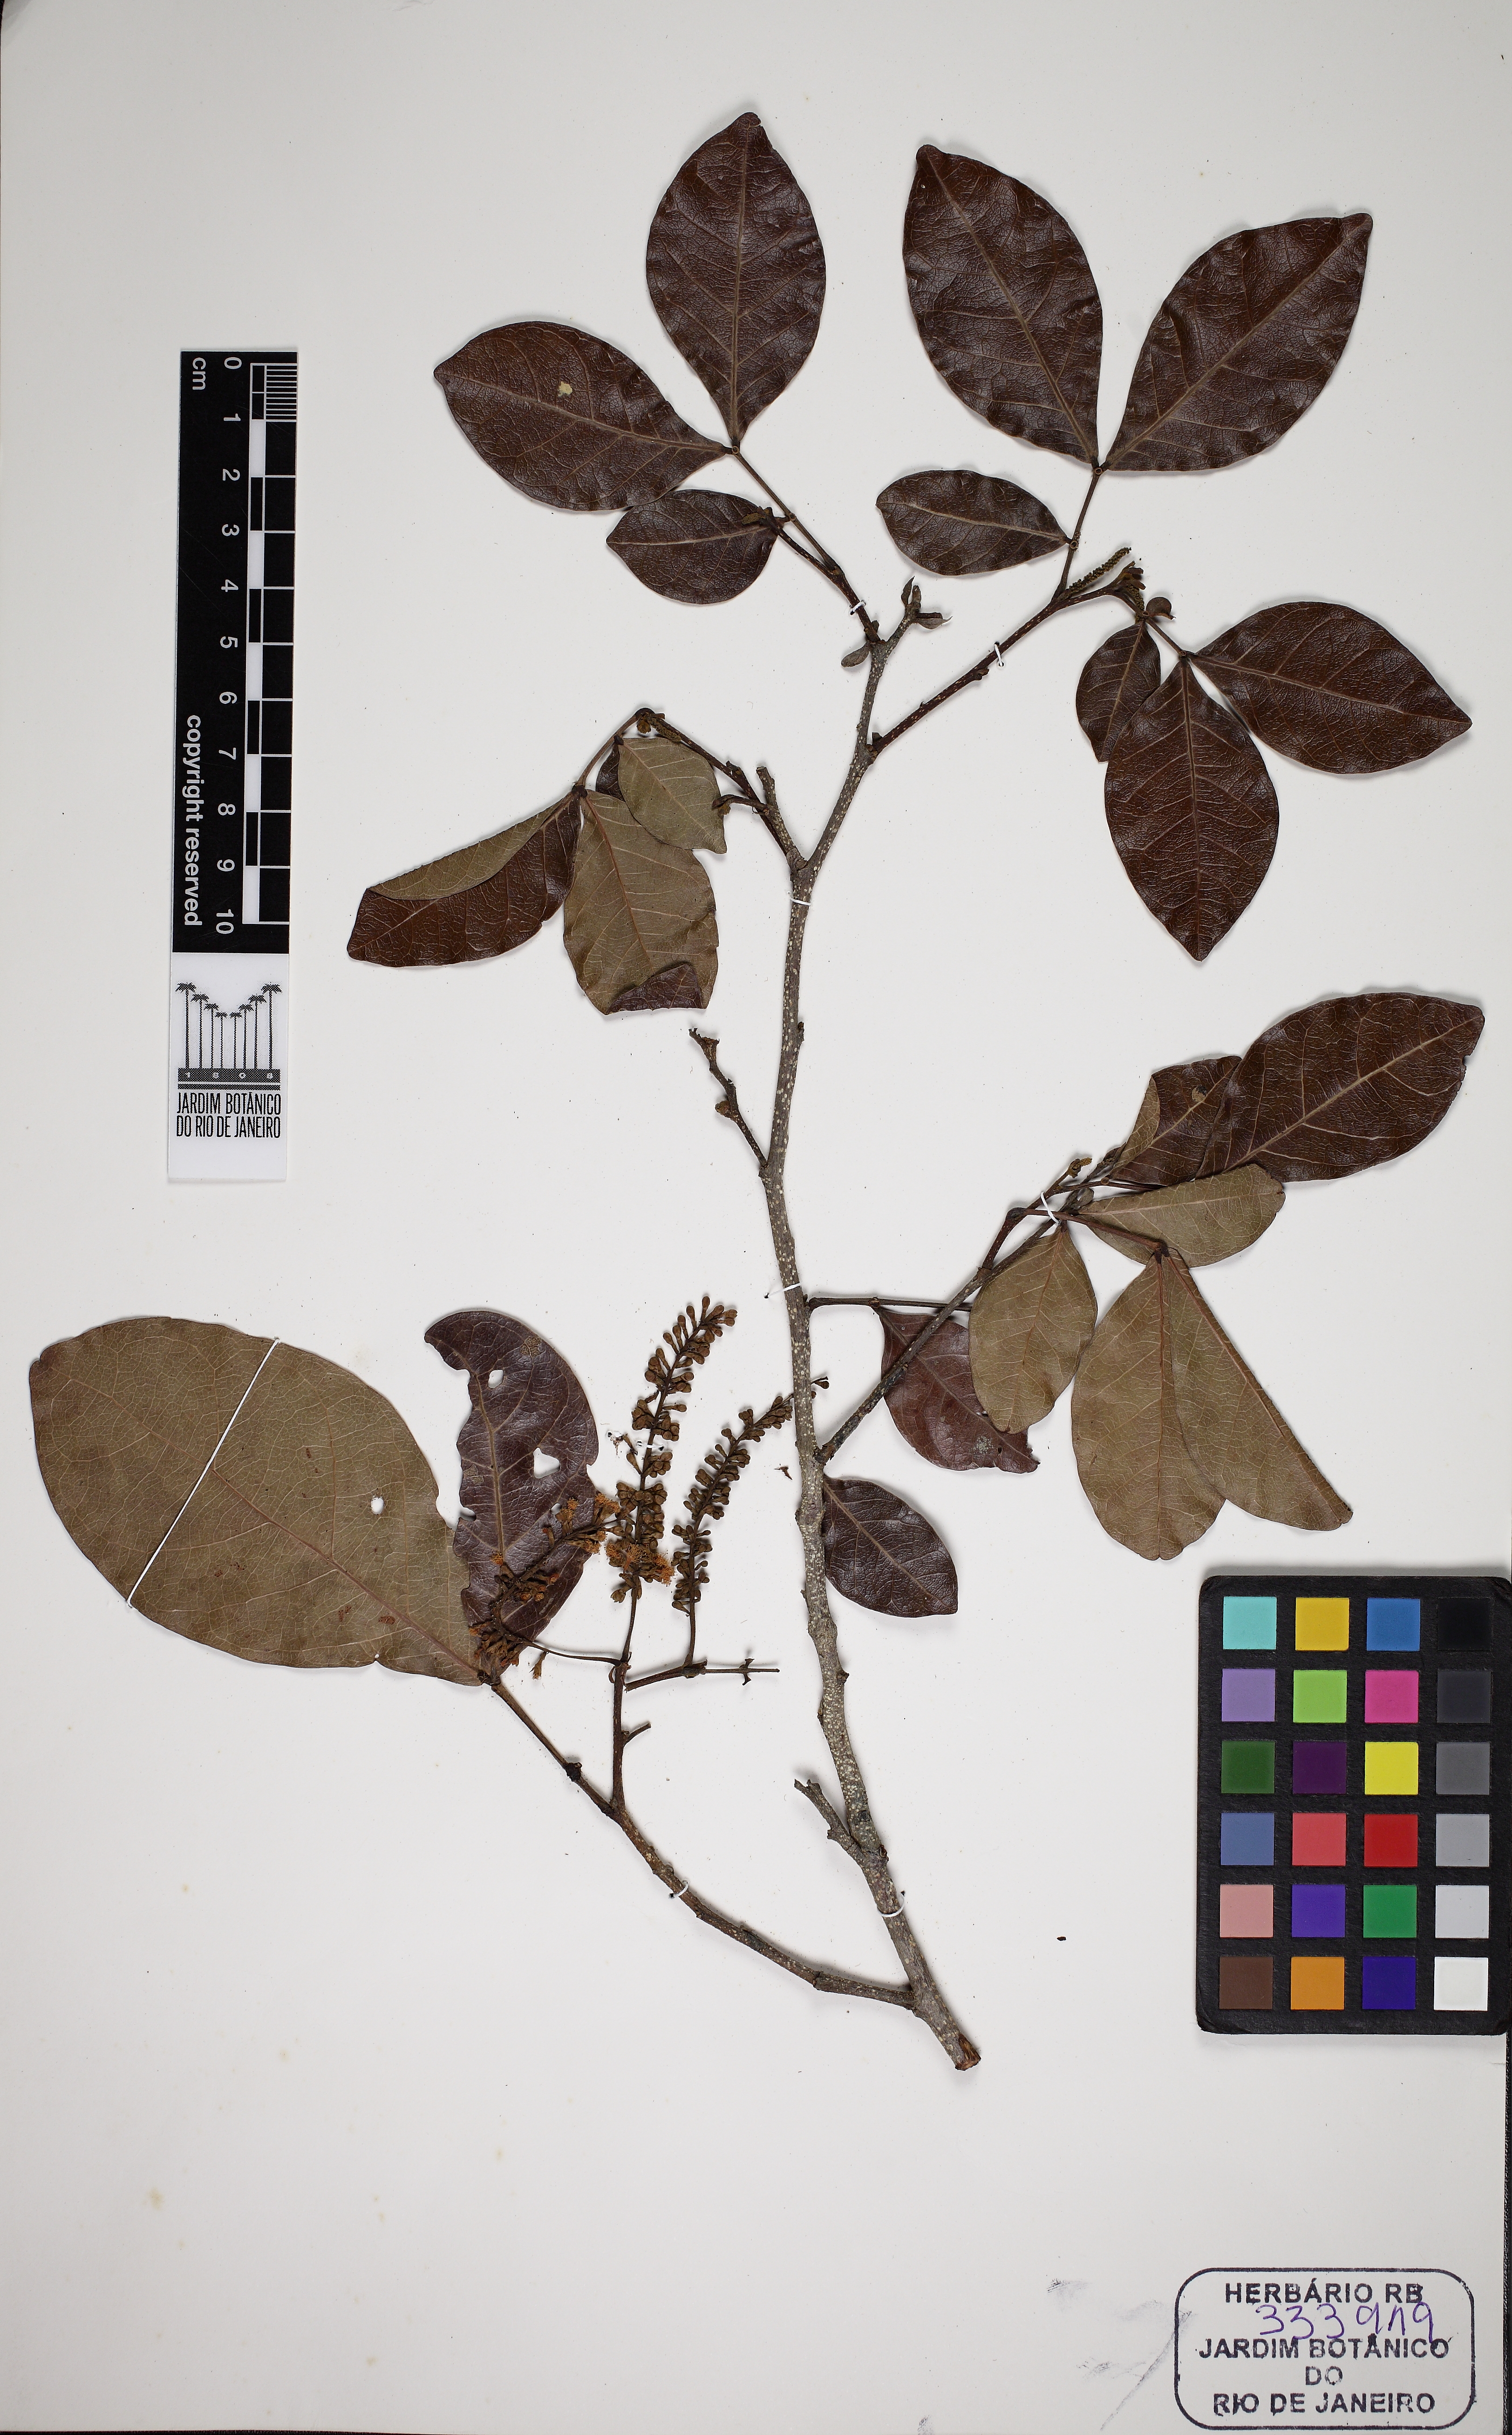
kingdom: Plantae
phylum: Tracheophyta
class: Magnoliopsida
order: Fabales
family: Fabaceae
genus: Inga
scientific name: Inga laurina
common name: Red wood
